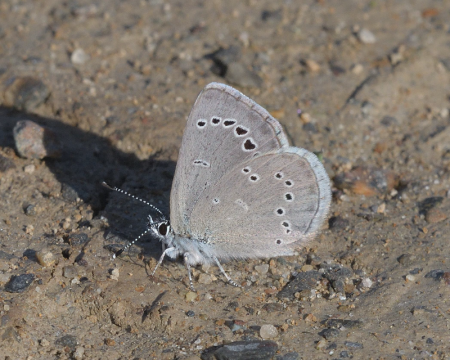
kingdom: Animalia
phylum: Arthropoda
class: Insecta
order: Lepidoptera
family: Lycaenidae
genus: Glaucopsyche
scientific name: Glaucopsyche lygdamus
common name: Silvery Blue
